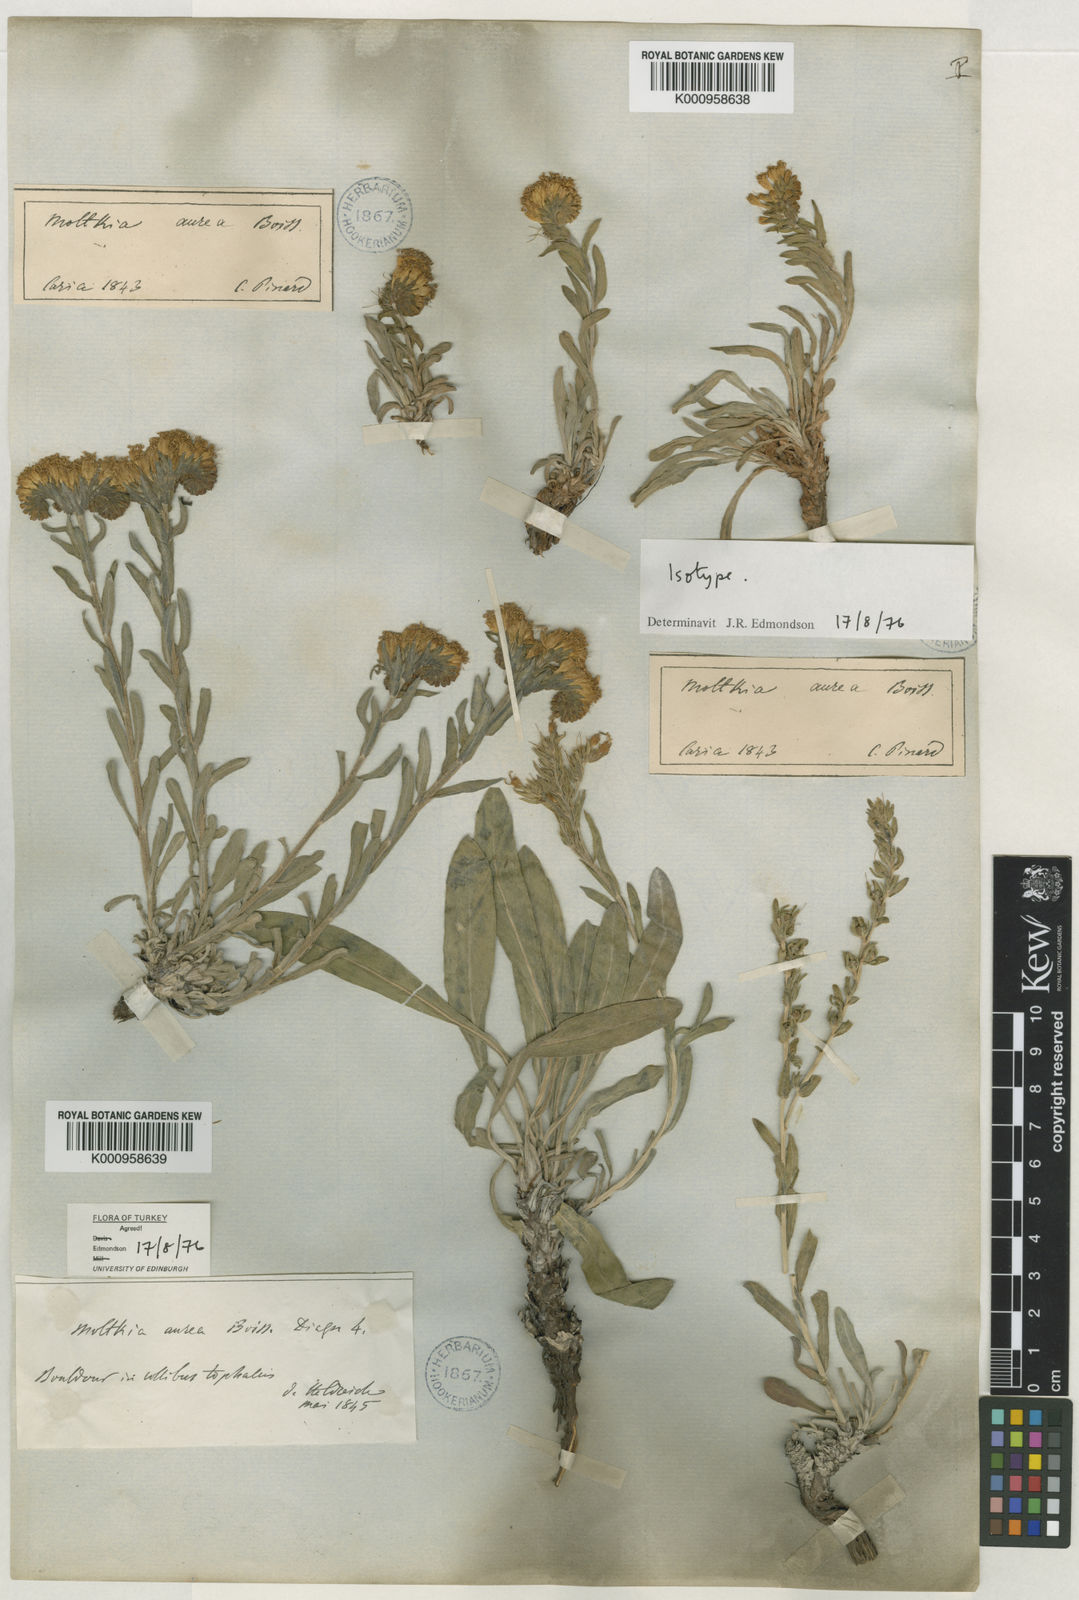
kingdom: Plantae
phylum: Tracheophyta
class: Magnoliopsida
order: Boraginales
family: Boraginaceae
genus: Moltkia
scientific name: Moltkia aurea
